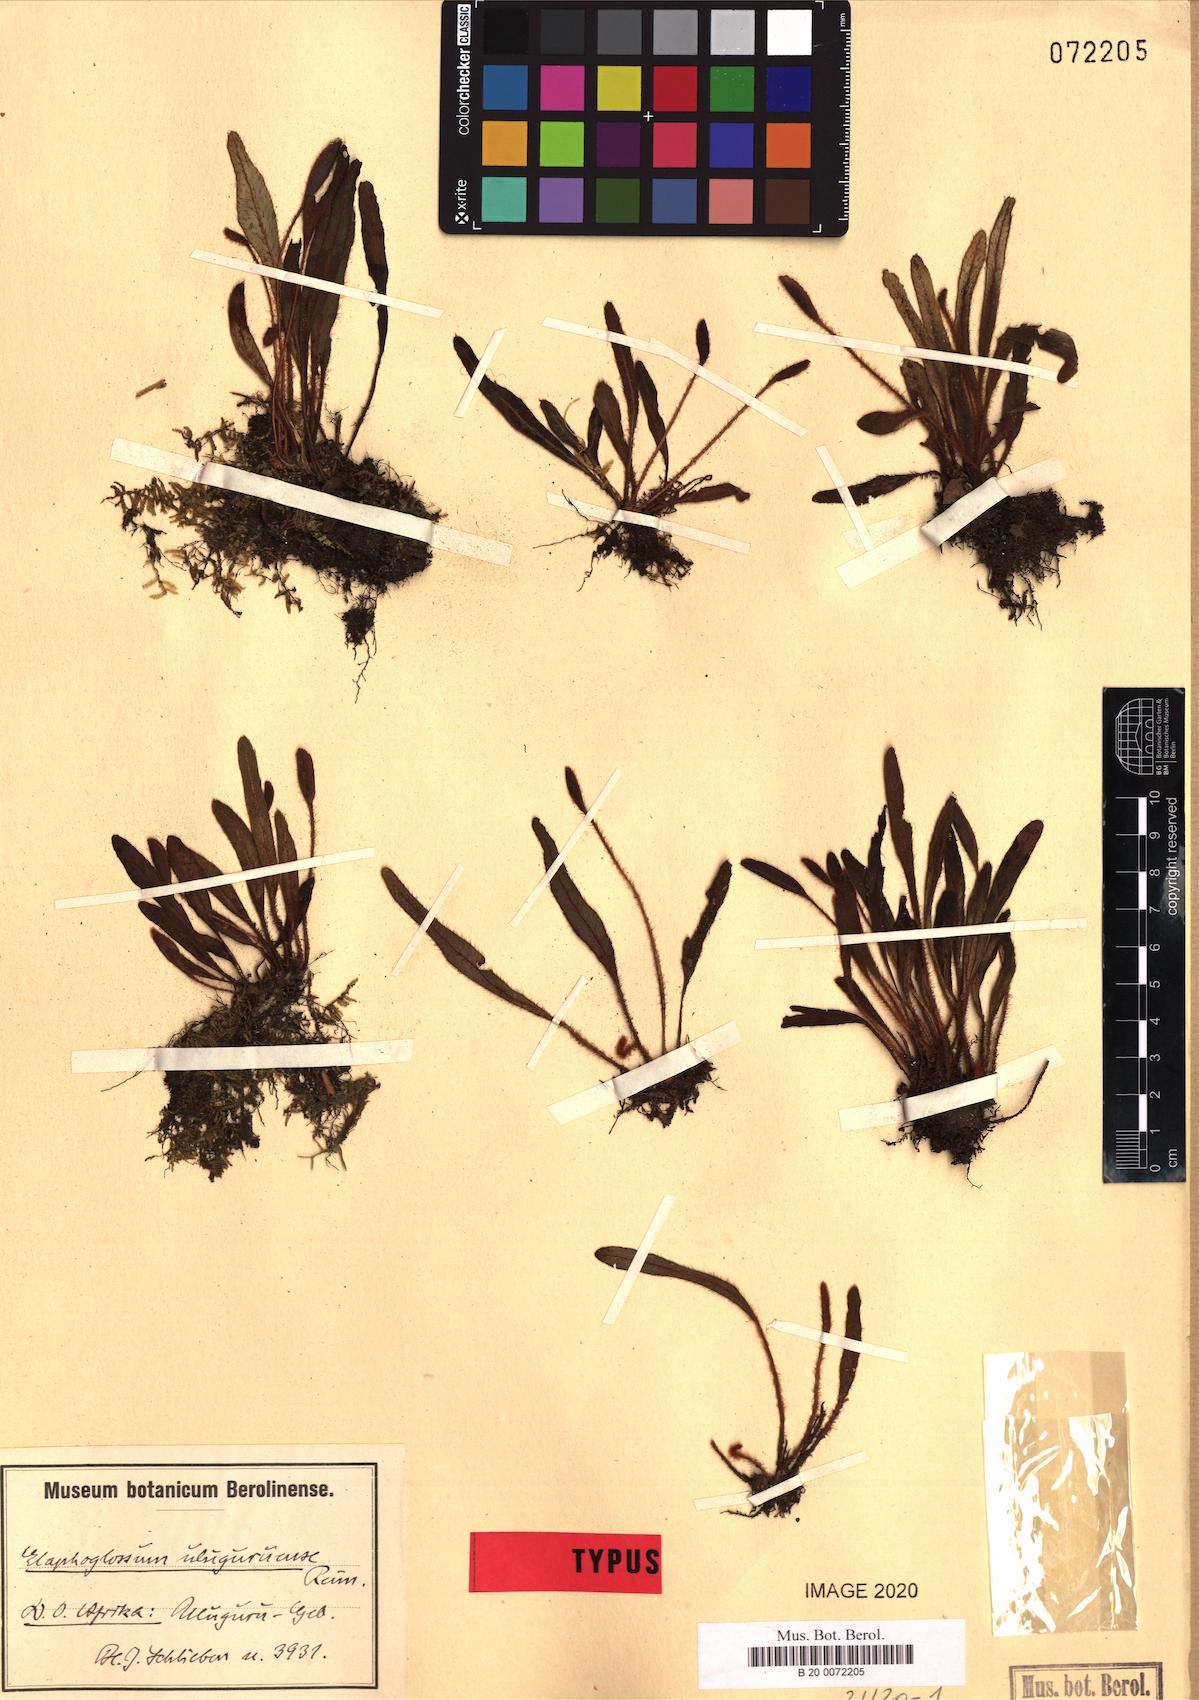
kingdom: Plantae
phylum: Tracheophyta
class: Polypodiopsida
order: Polypodiales
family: Dryopteridaceae
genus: Elaphoglossum
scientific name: Elaphoglossum spatulatum
